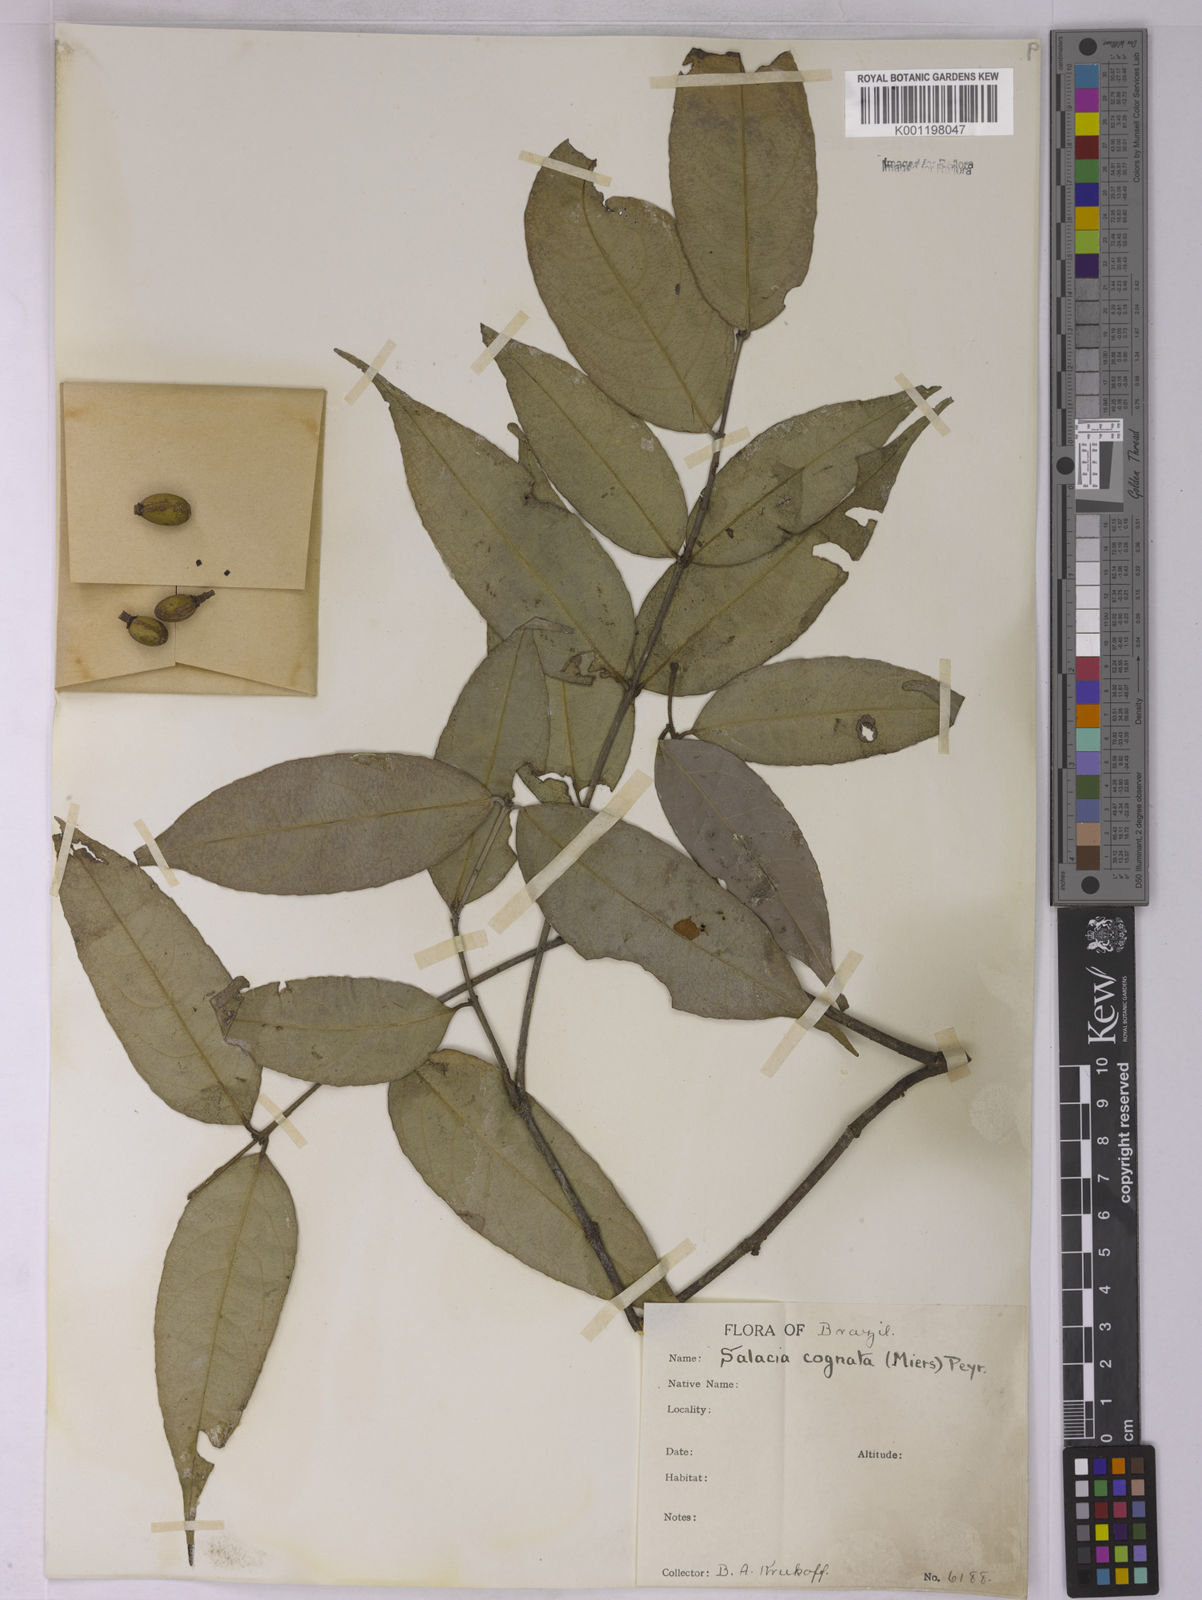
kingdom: Plantae
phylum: Tracheophyta
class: Magnoliopsida
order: Celastrales
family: Celastraceae
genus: Cheiloclinium
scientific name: Cheiloclinium cognatum
